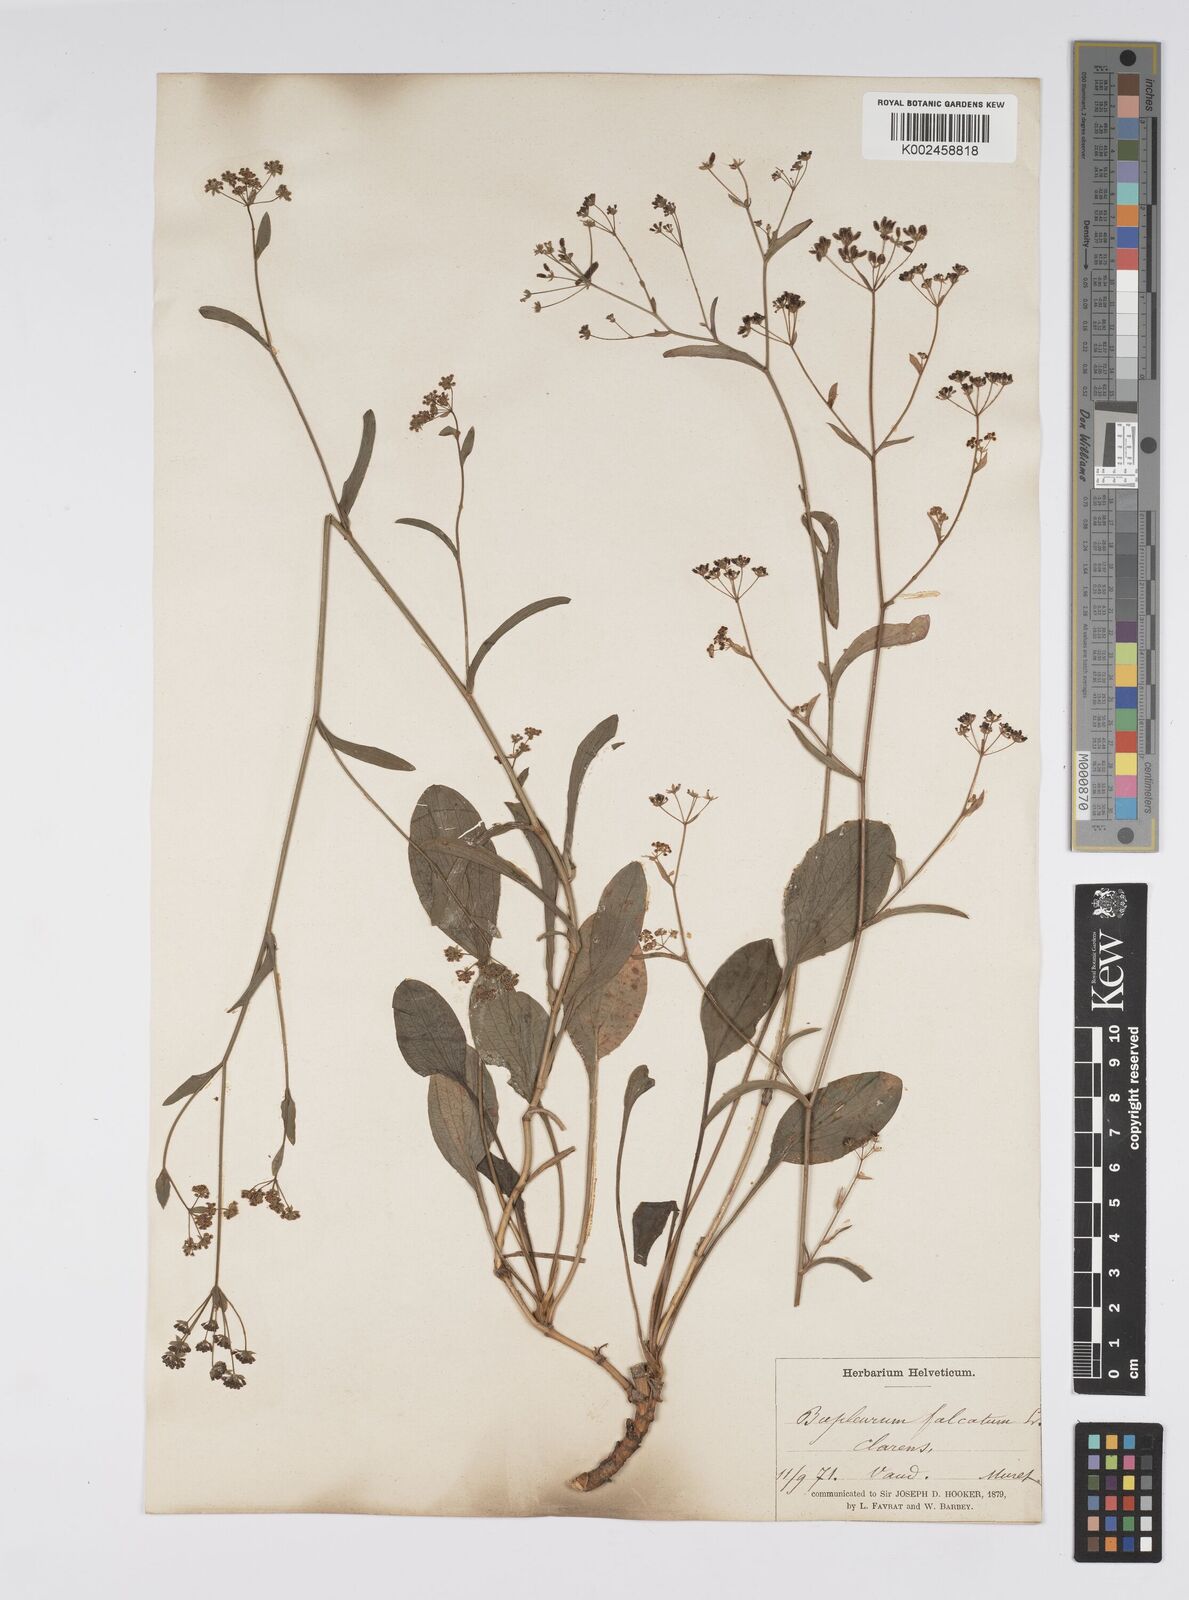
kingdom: Plantae
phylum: Tracheophyta
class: Magnoliopsida
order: Apiales
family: Apiaceae
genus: Bupleurum
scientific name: Bupleurum falcatum
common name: Sickle-leaved hare's-ear
